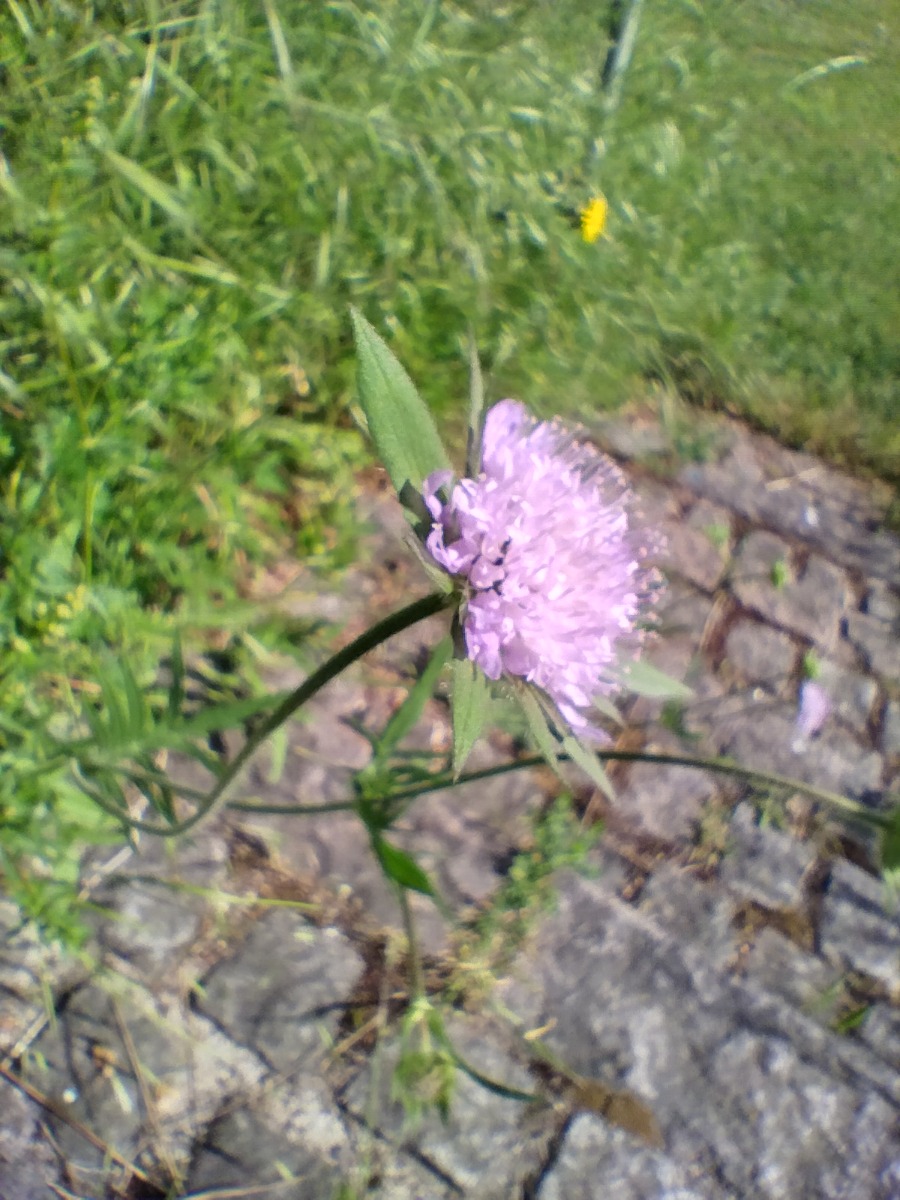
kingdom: Plantae
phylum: Tracheophyta
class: Magnoliopsida
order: Dipsacales
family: Caprifoliaceae
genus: Knautia
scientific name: Knautia arvensis
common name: Blåhat
